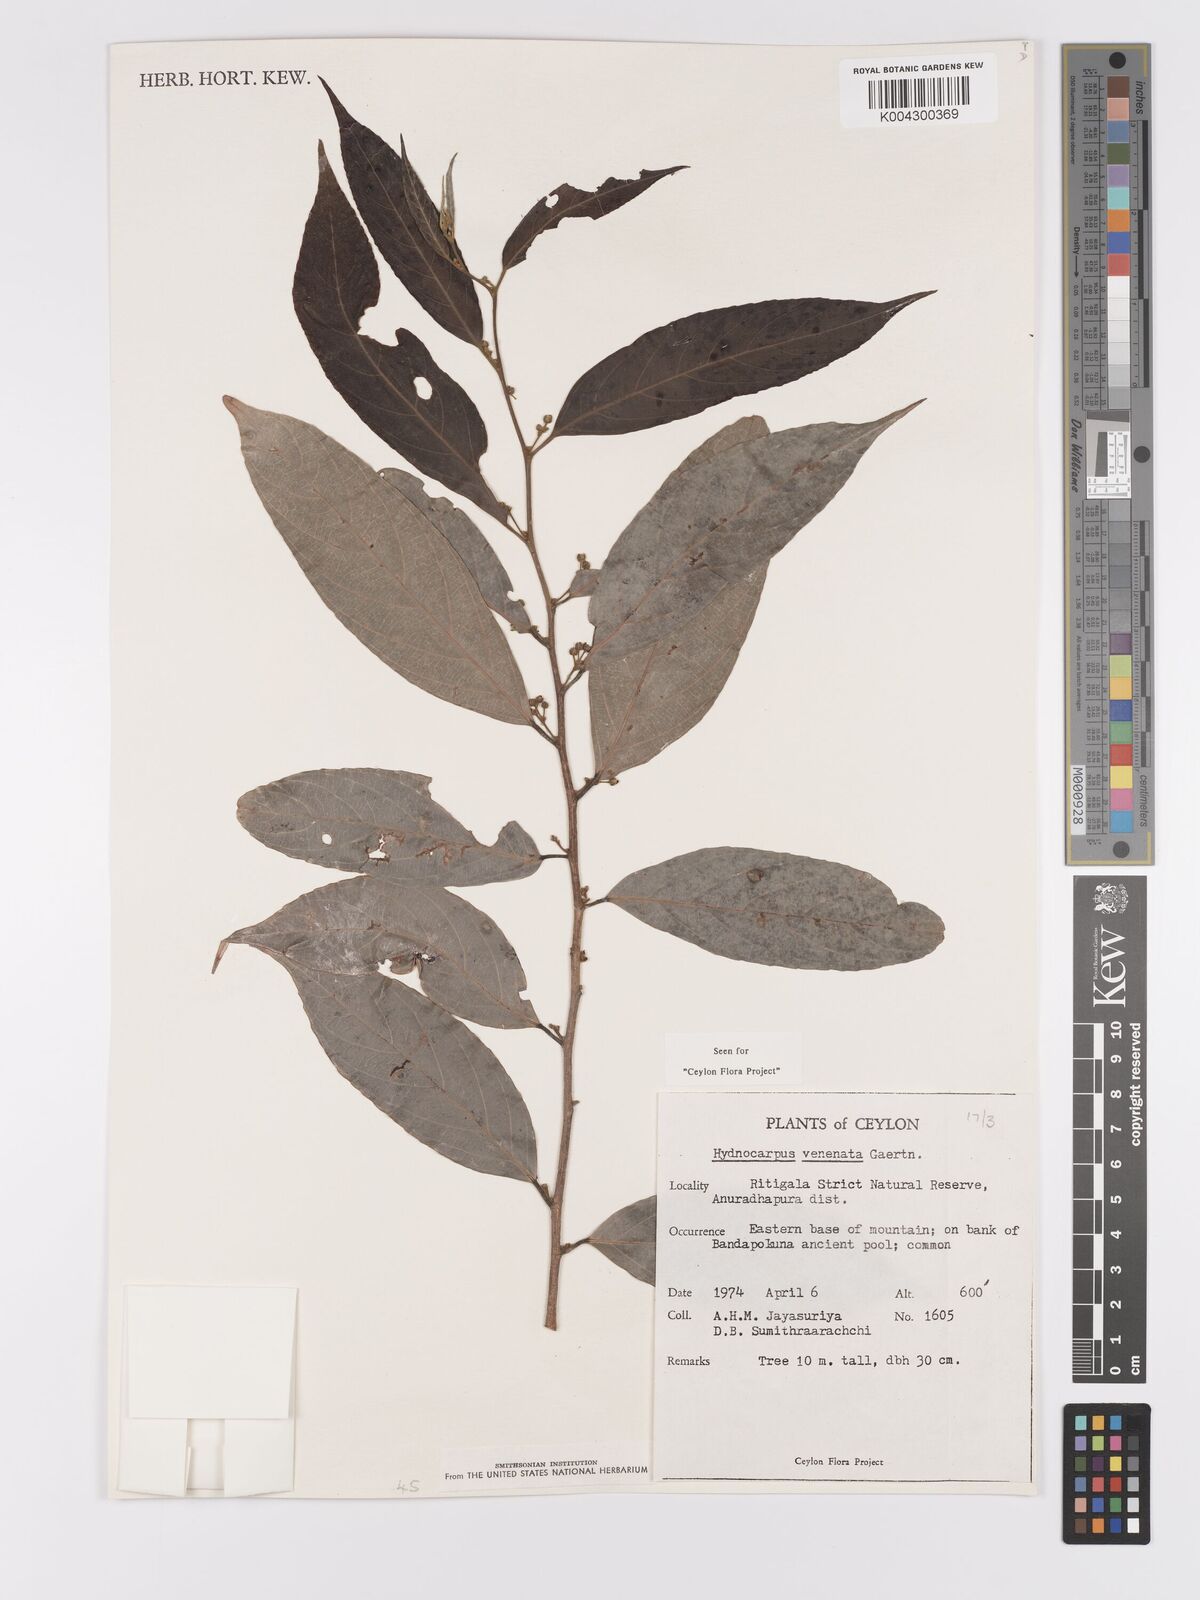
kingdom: Plantae
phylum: Tracheophyta
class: Magnoliopsida
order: Malpighiales
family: Achariaceae
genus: Hydnocarpus
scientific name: Hydnocarpus venenatus
